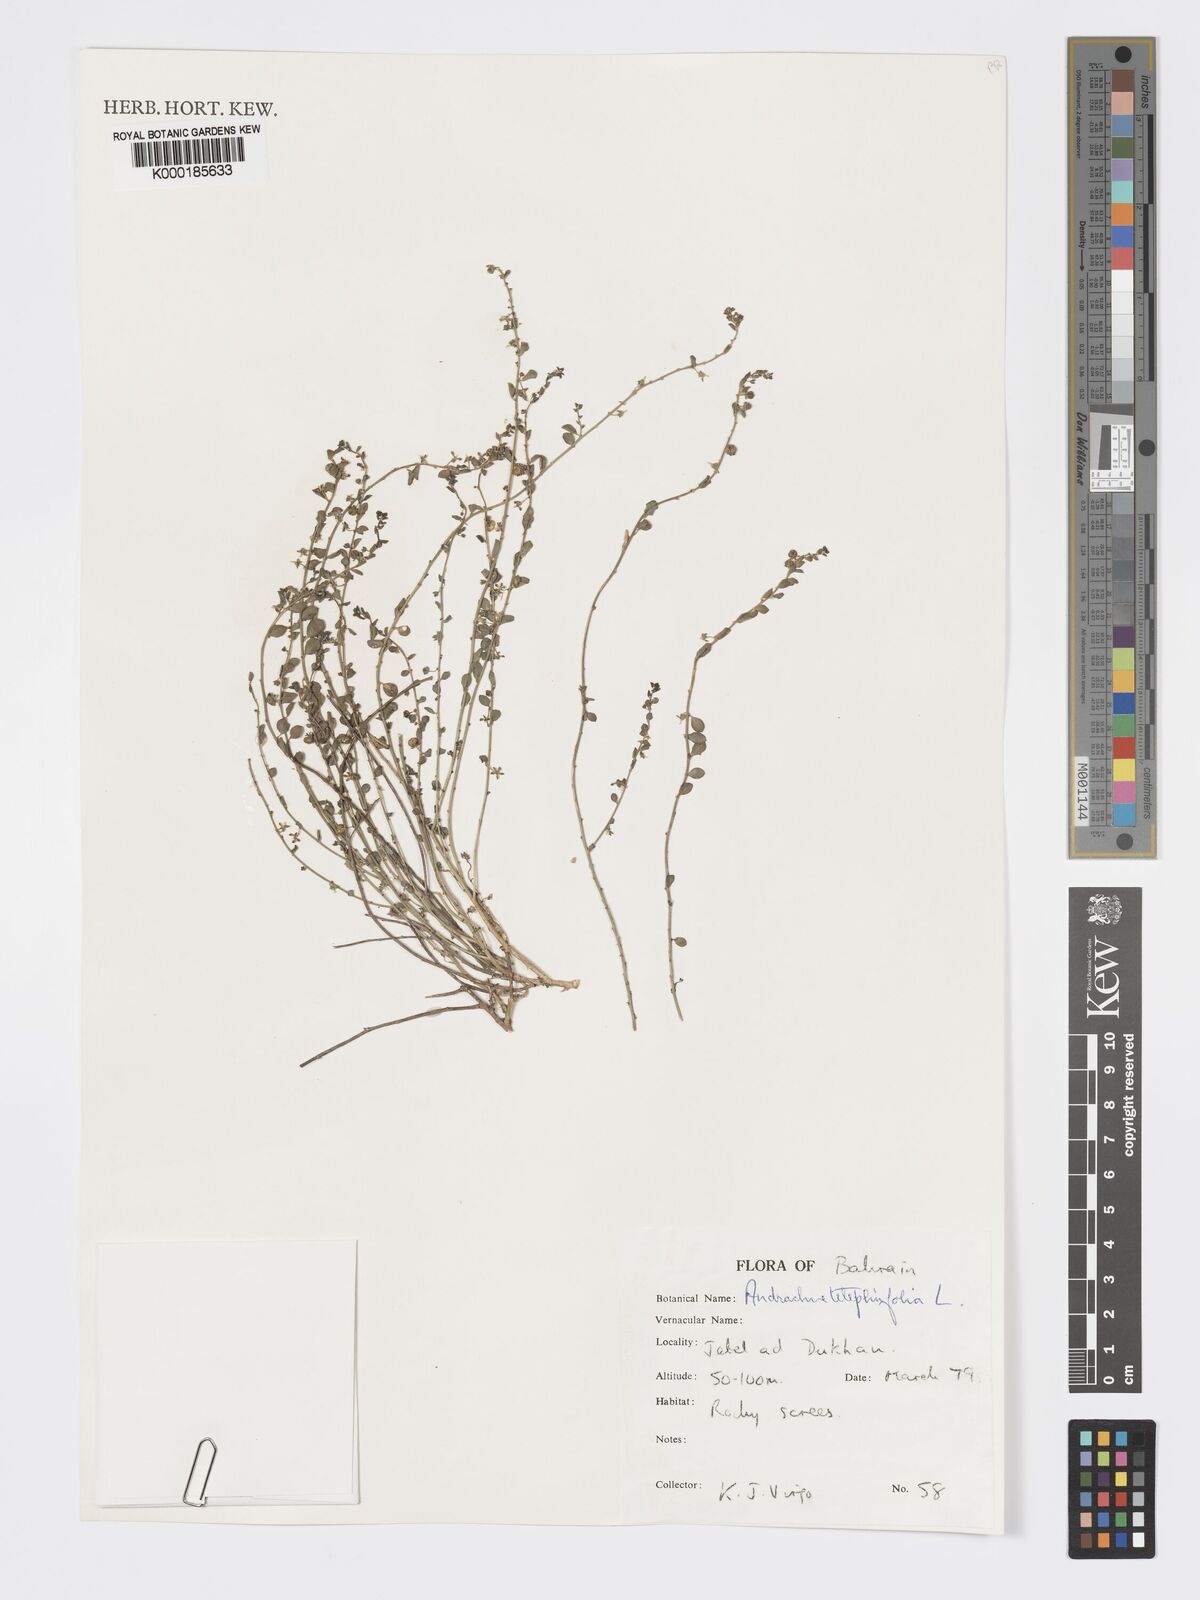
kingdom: Plantae
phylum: Tracheophyta
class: Magnoliopsida
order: Malpighiales
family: Phyllanthaceae
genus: Andrachne
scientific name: Andrachne telephioides
